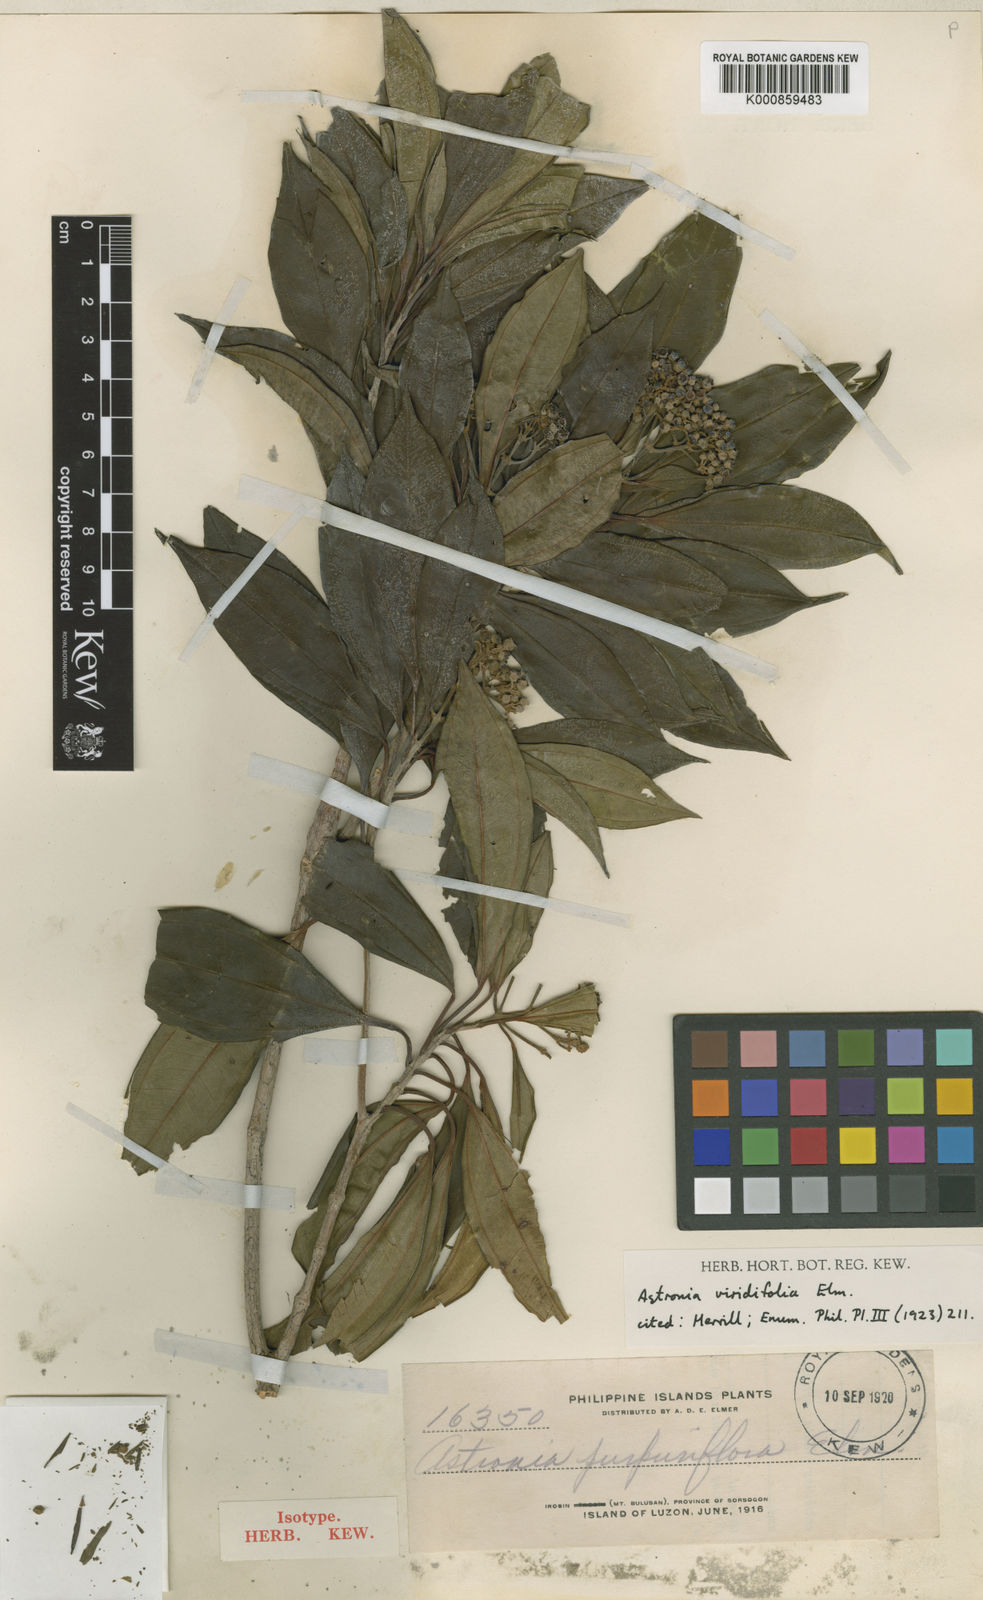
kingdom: Plantae
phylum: Tracheophyta
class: Magnoliopsida
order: Myrtales
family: Melastomataceae
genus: Astronia
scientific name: Astronia viridifolia
